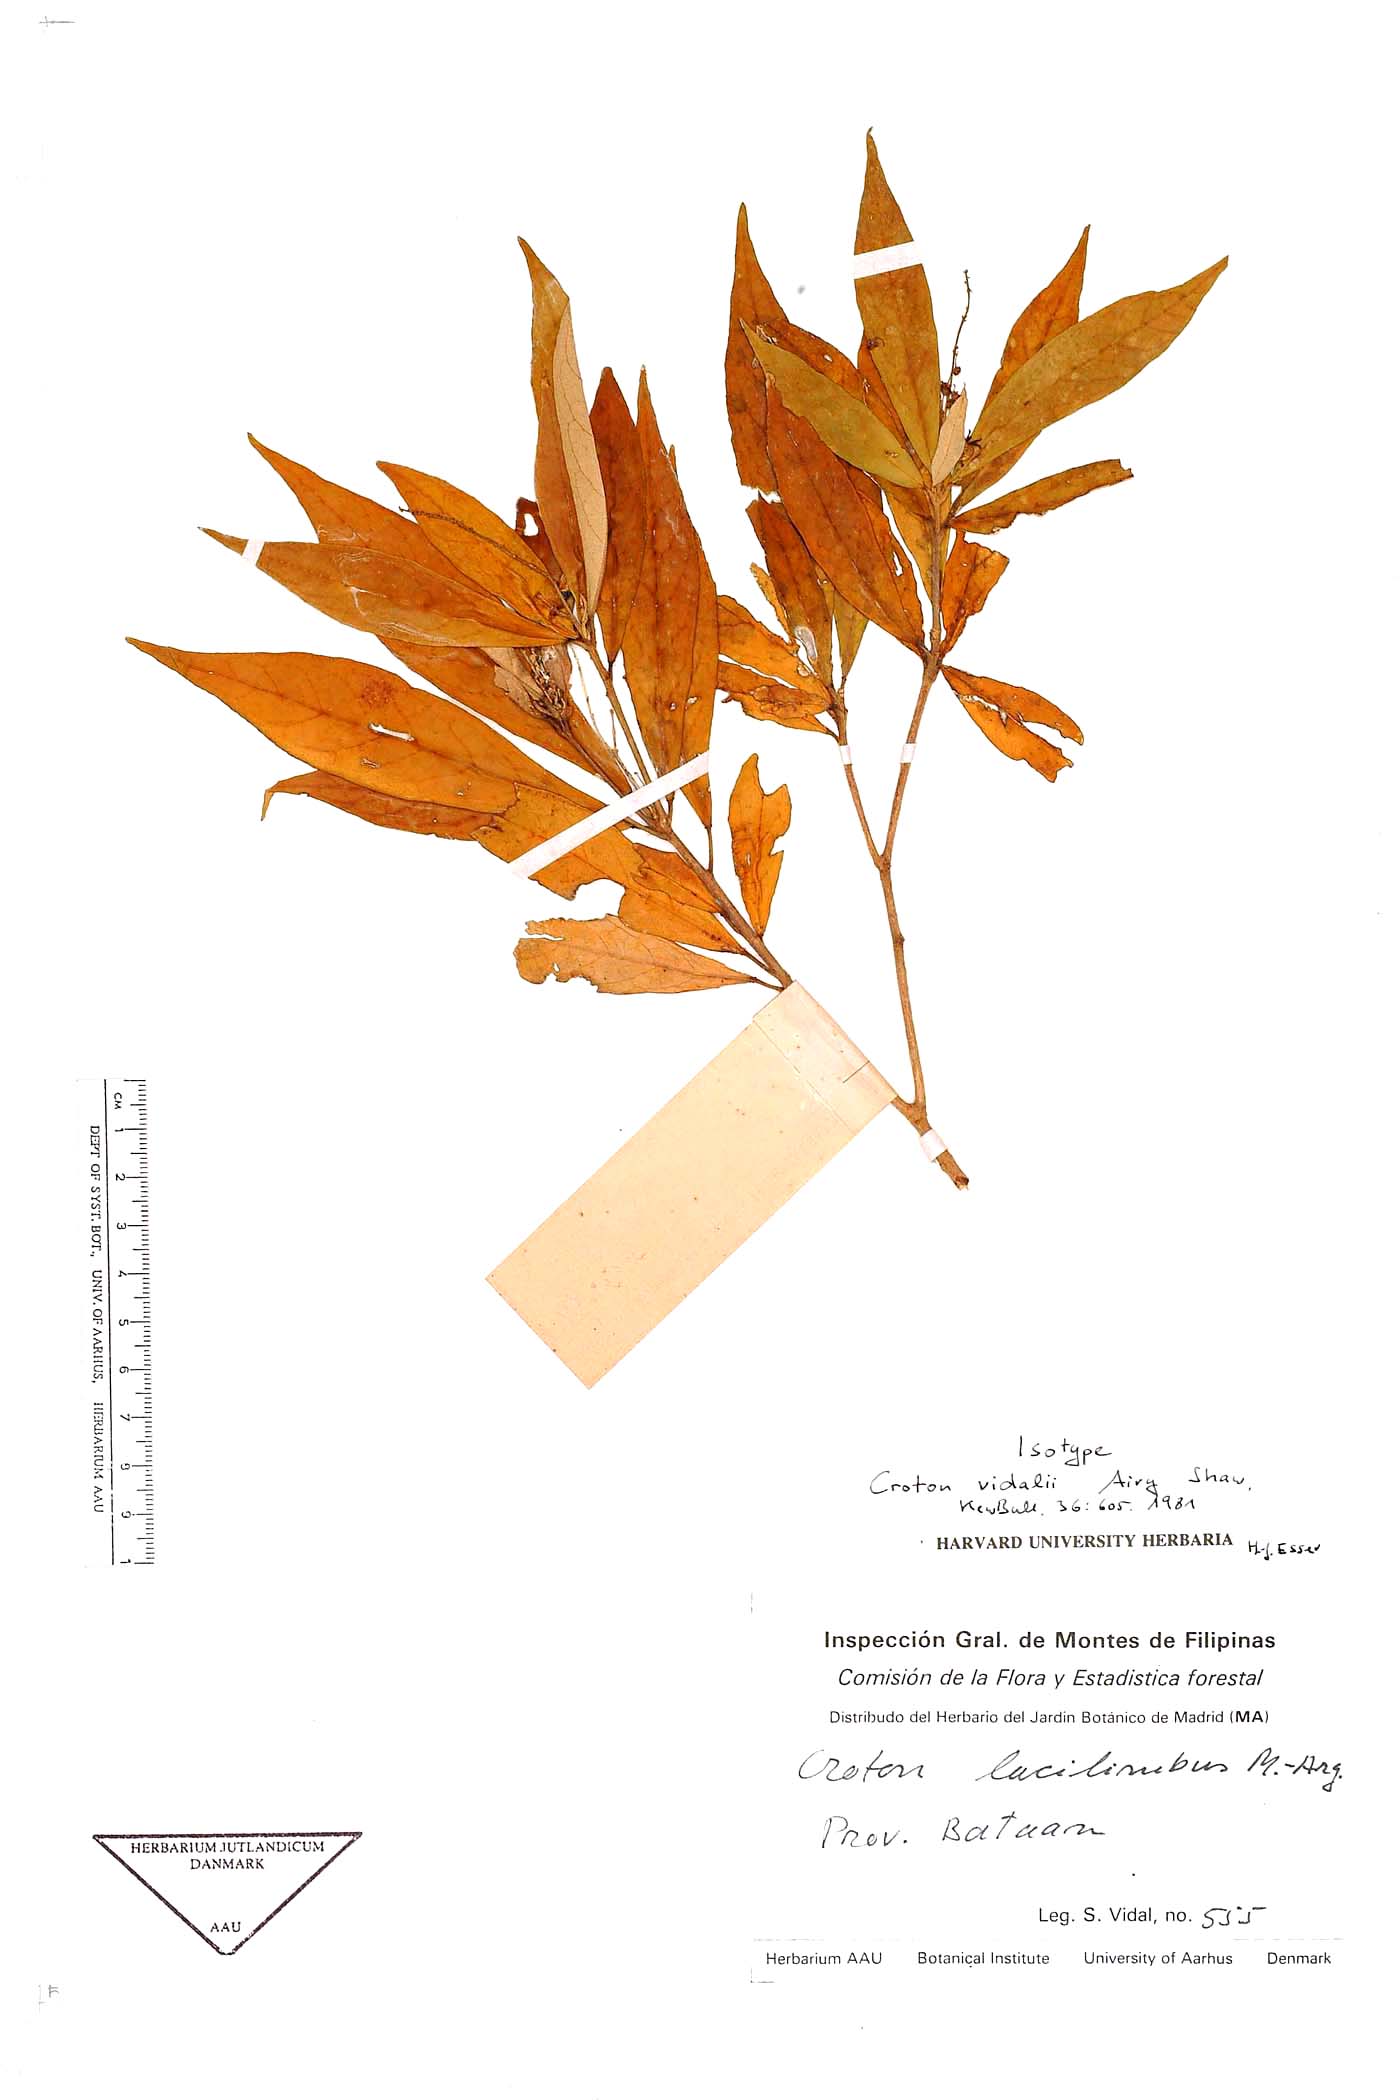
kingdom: Plantae
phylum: Tracheophyta
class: Magnoliopsida
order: Malpighiales
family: Euphorbiaceae
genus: Croton
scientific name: Croton vidalii
